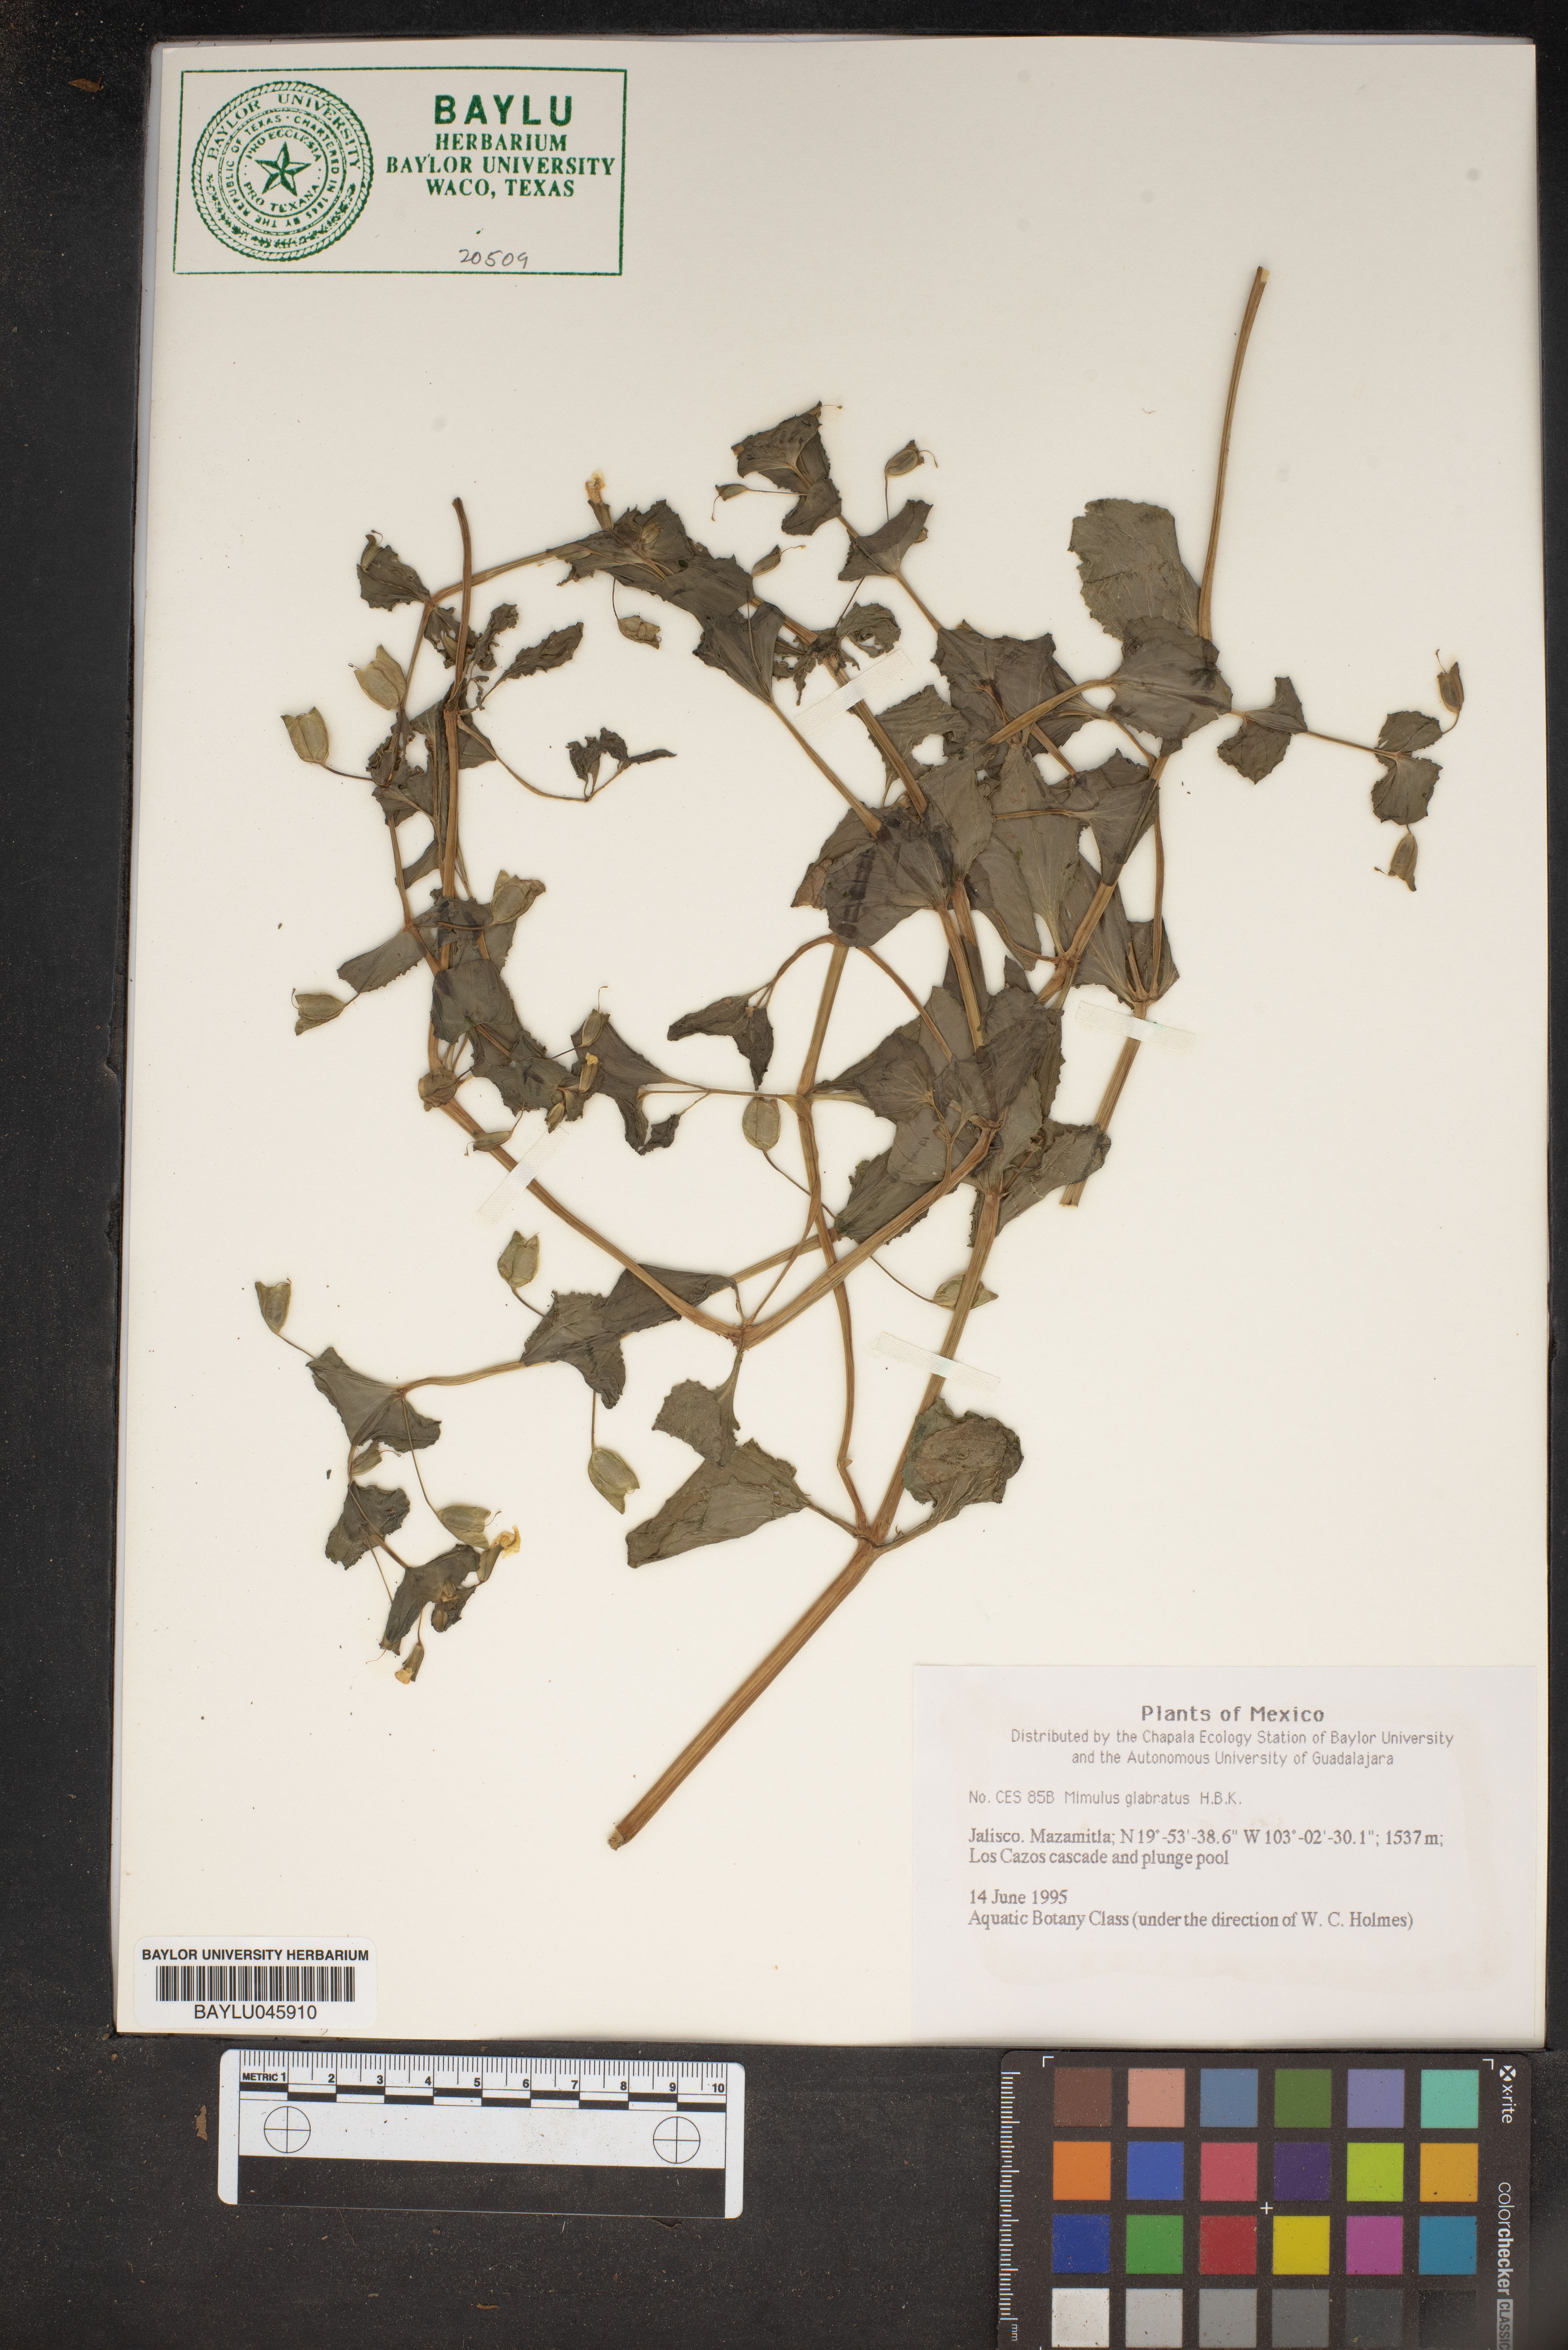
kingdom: Plantae
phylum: Tracheophyta
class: Magnoliopsida
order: Lamiales
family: Phrymaceae
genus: Erythranthe
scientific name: Erythranthe glabrata
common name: Round-leaved monkeyflower
